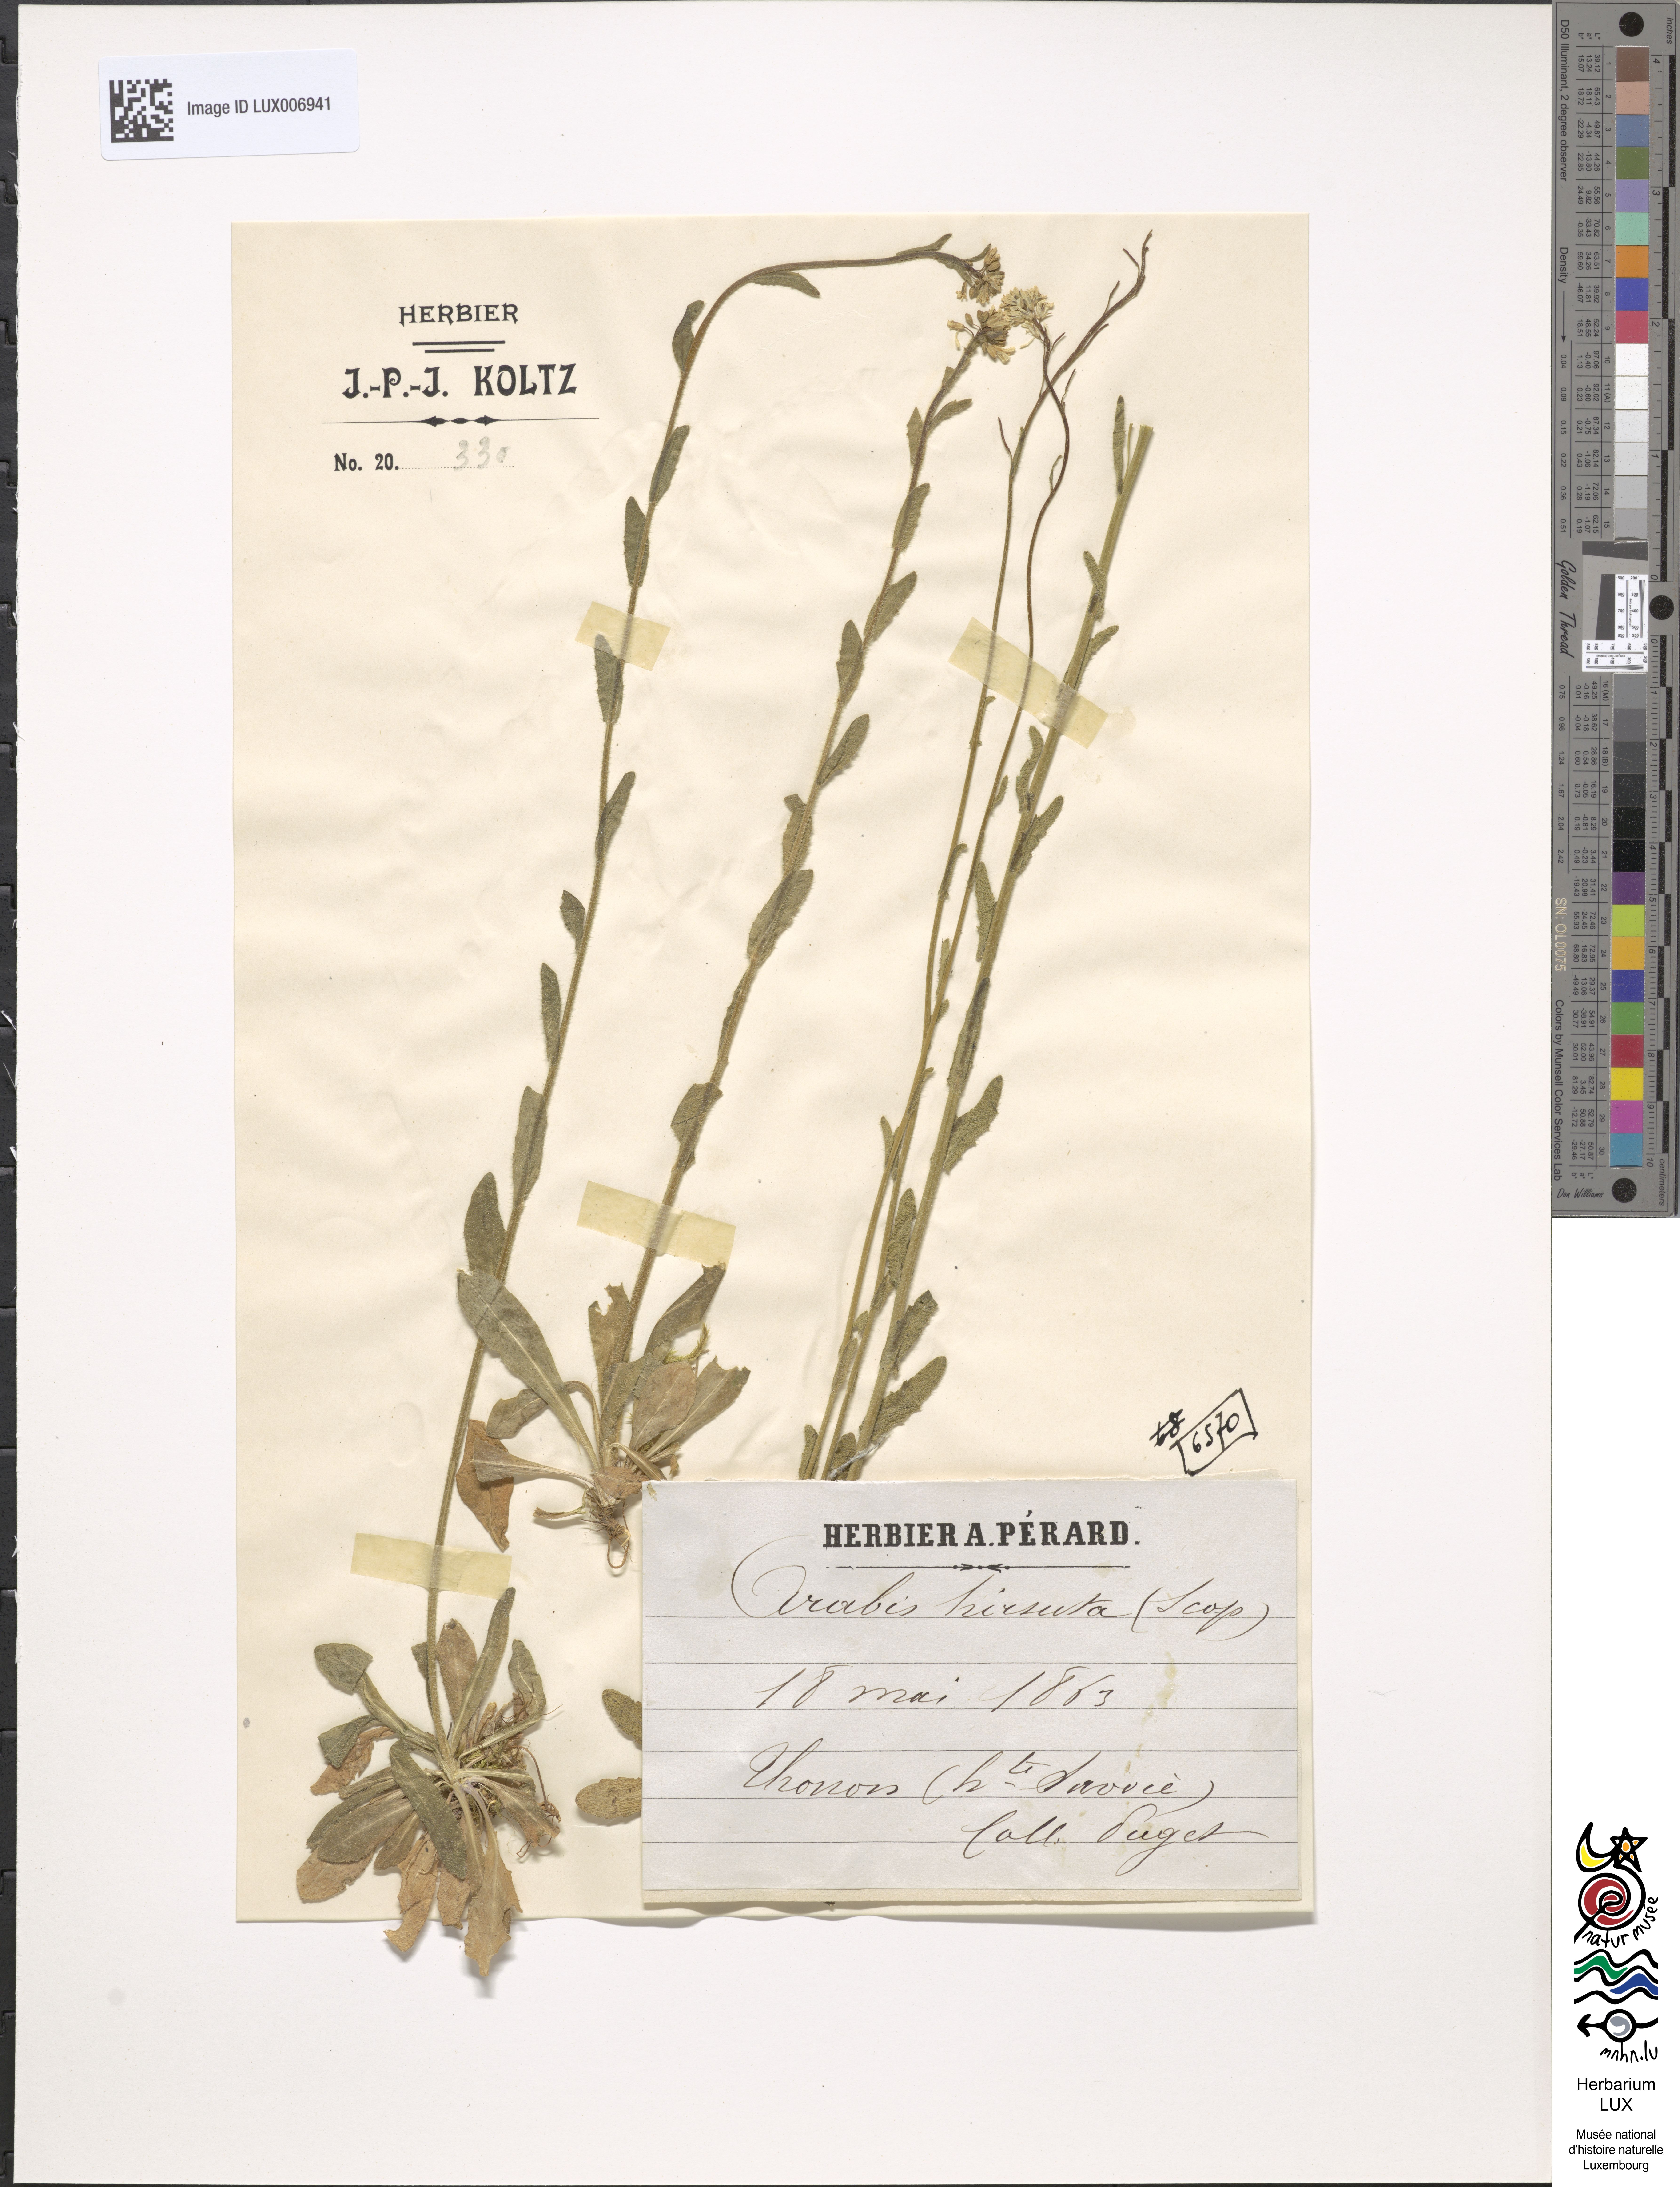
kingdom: Plantae
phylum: Tracheophyta
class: Magnoliopsida
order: Brassicales
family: Brassicaceae
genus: Arabis
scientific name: Arabis hirsuta
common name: Hairy rock-cress
